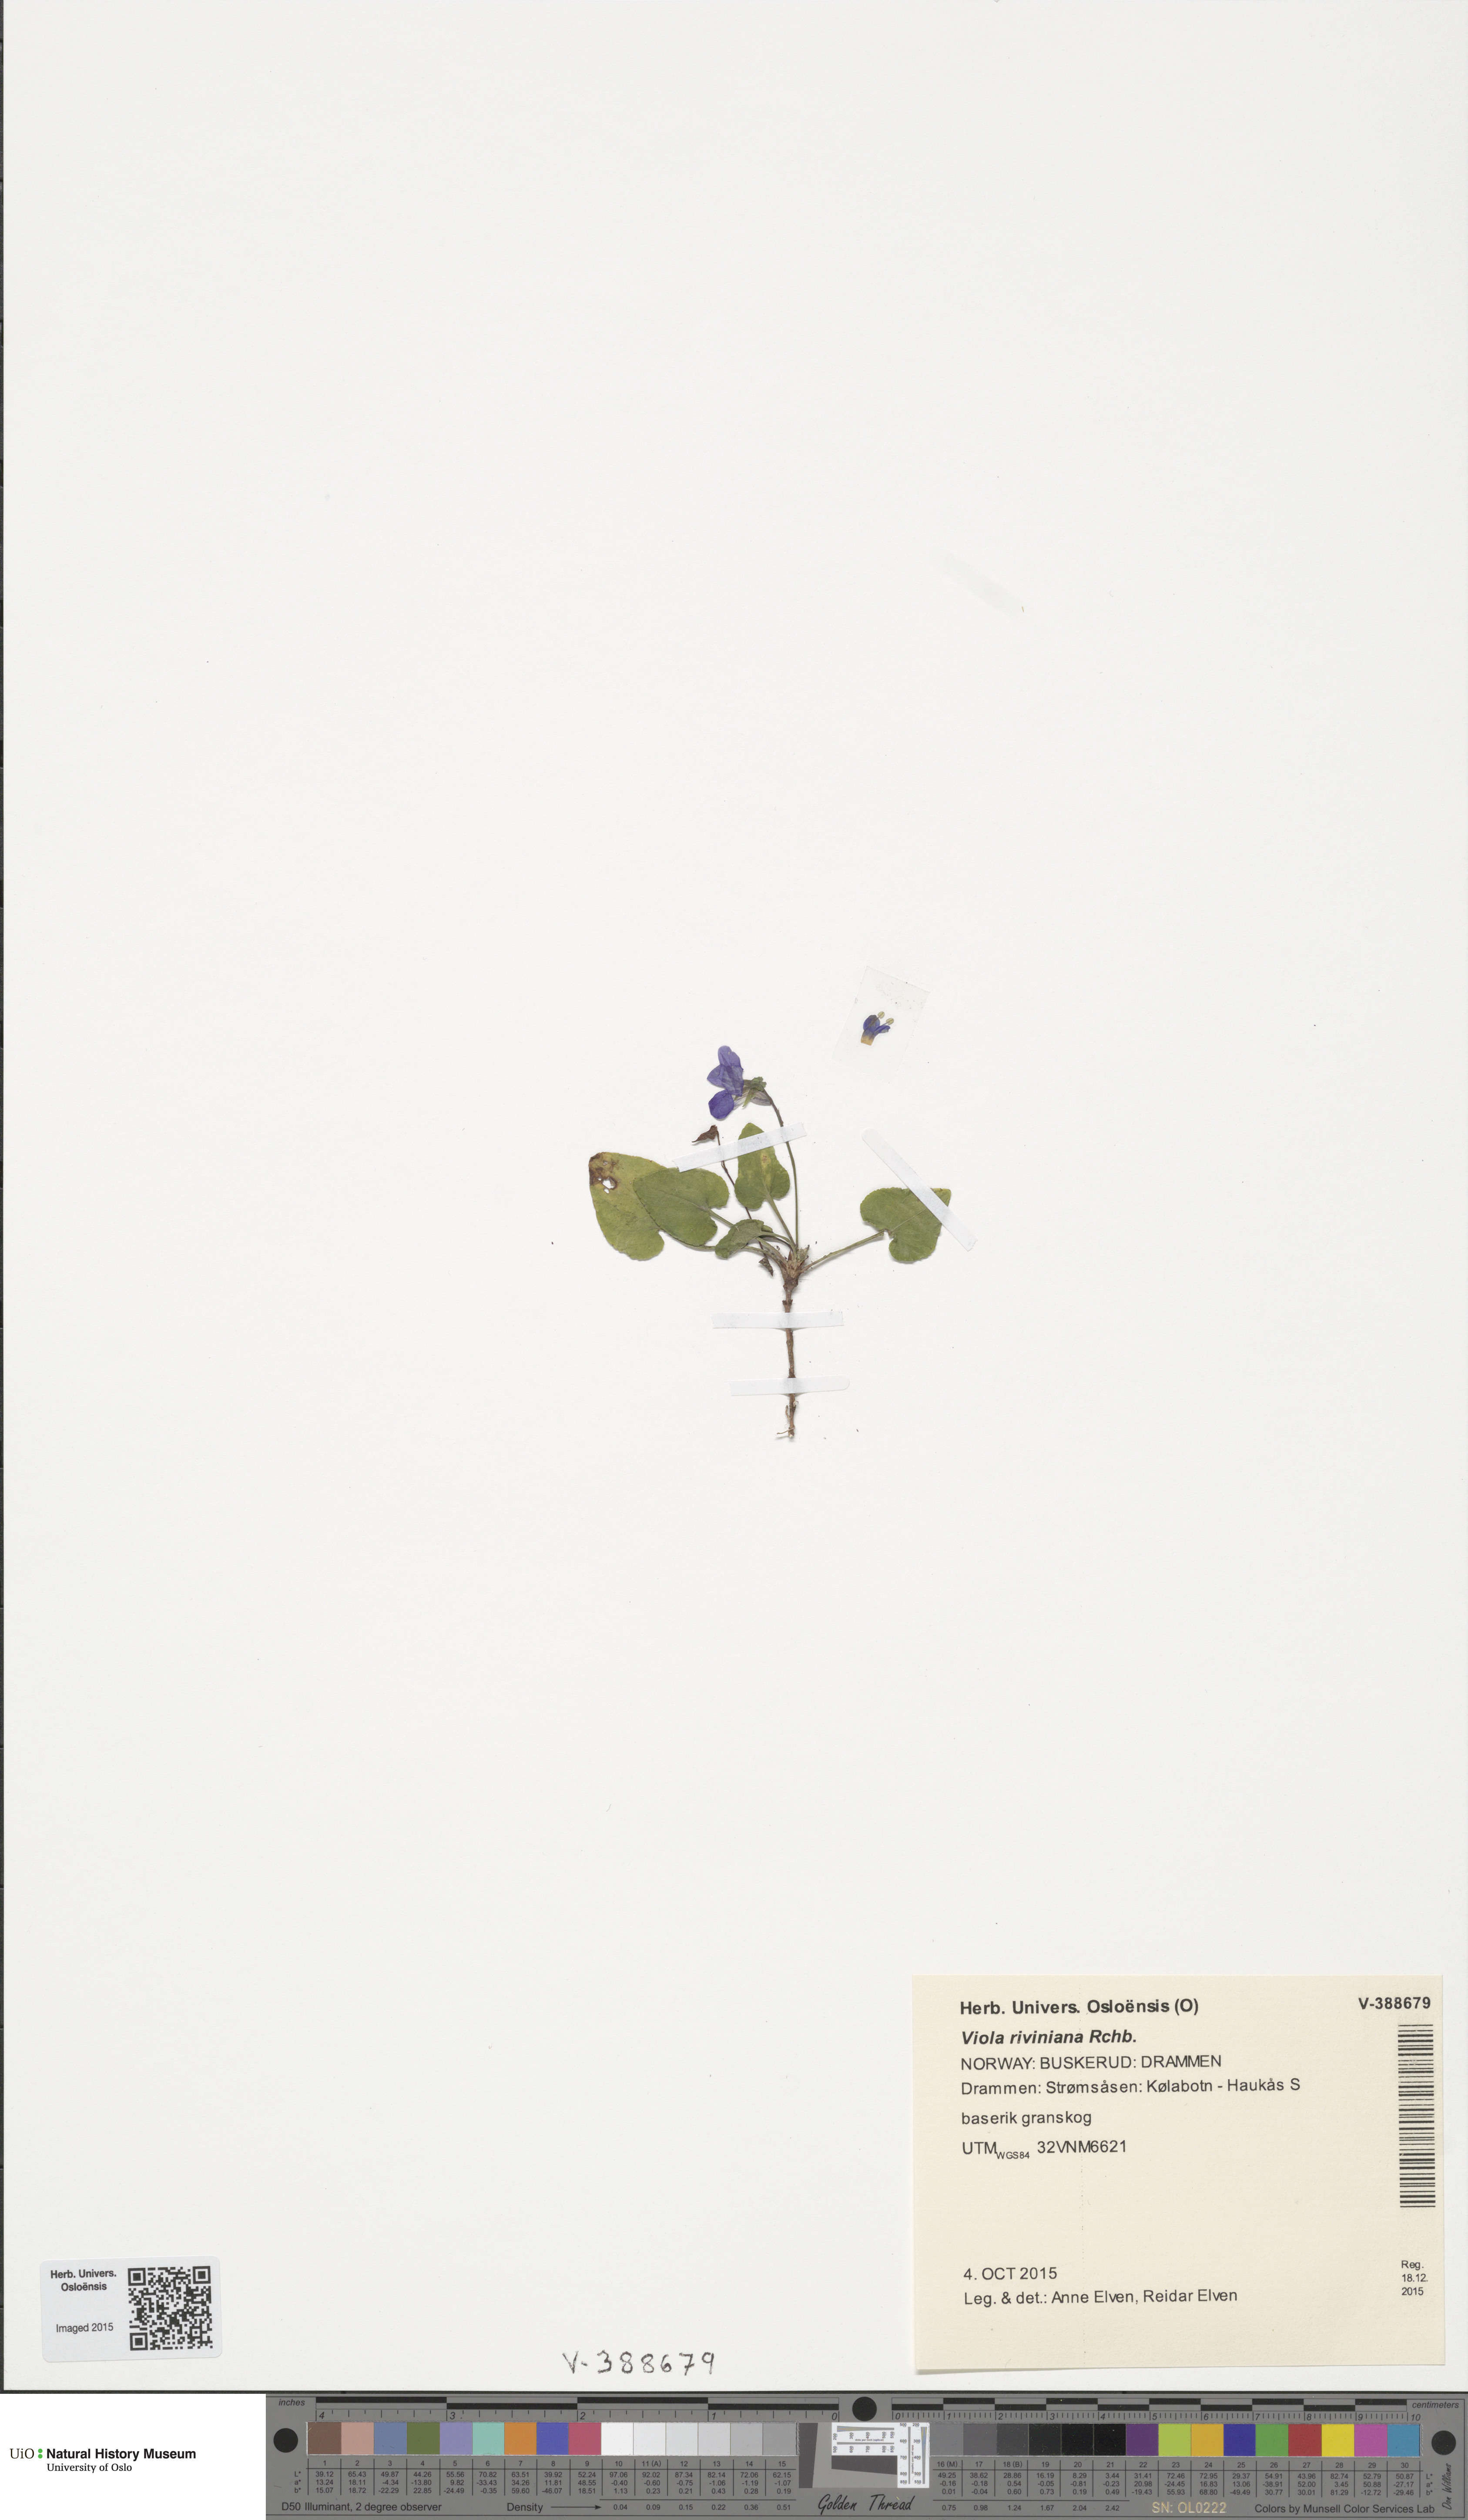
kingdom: Plantae
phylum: Tracheophyta
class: Magnoliopsida
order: Malpighiales
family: Violaceae
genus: Viola
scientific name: Viola riviniana
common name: Common dog-violet
